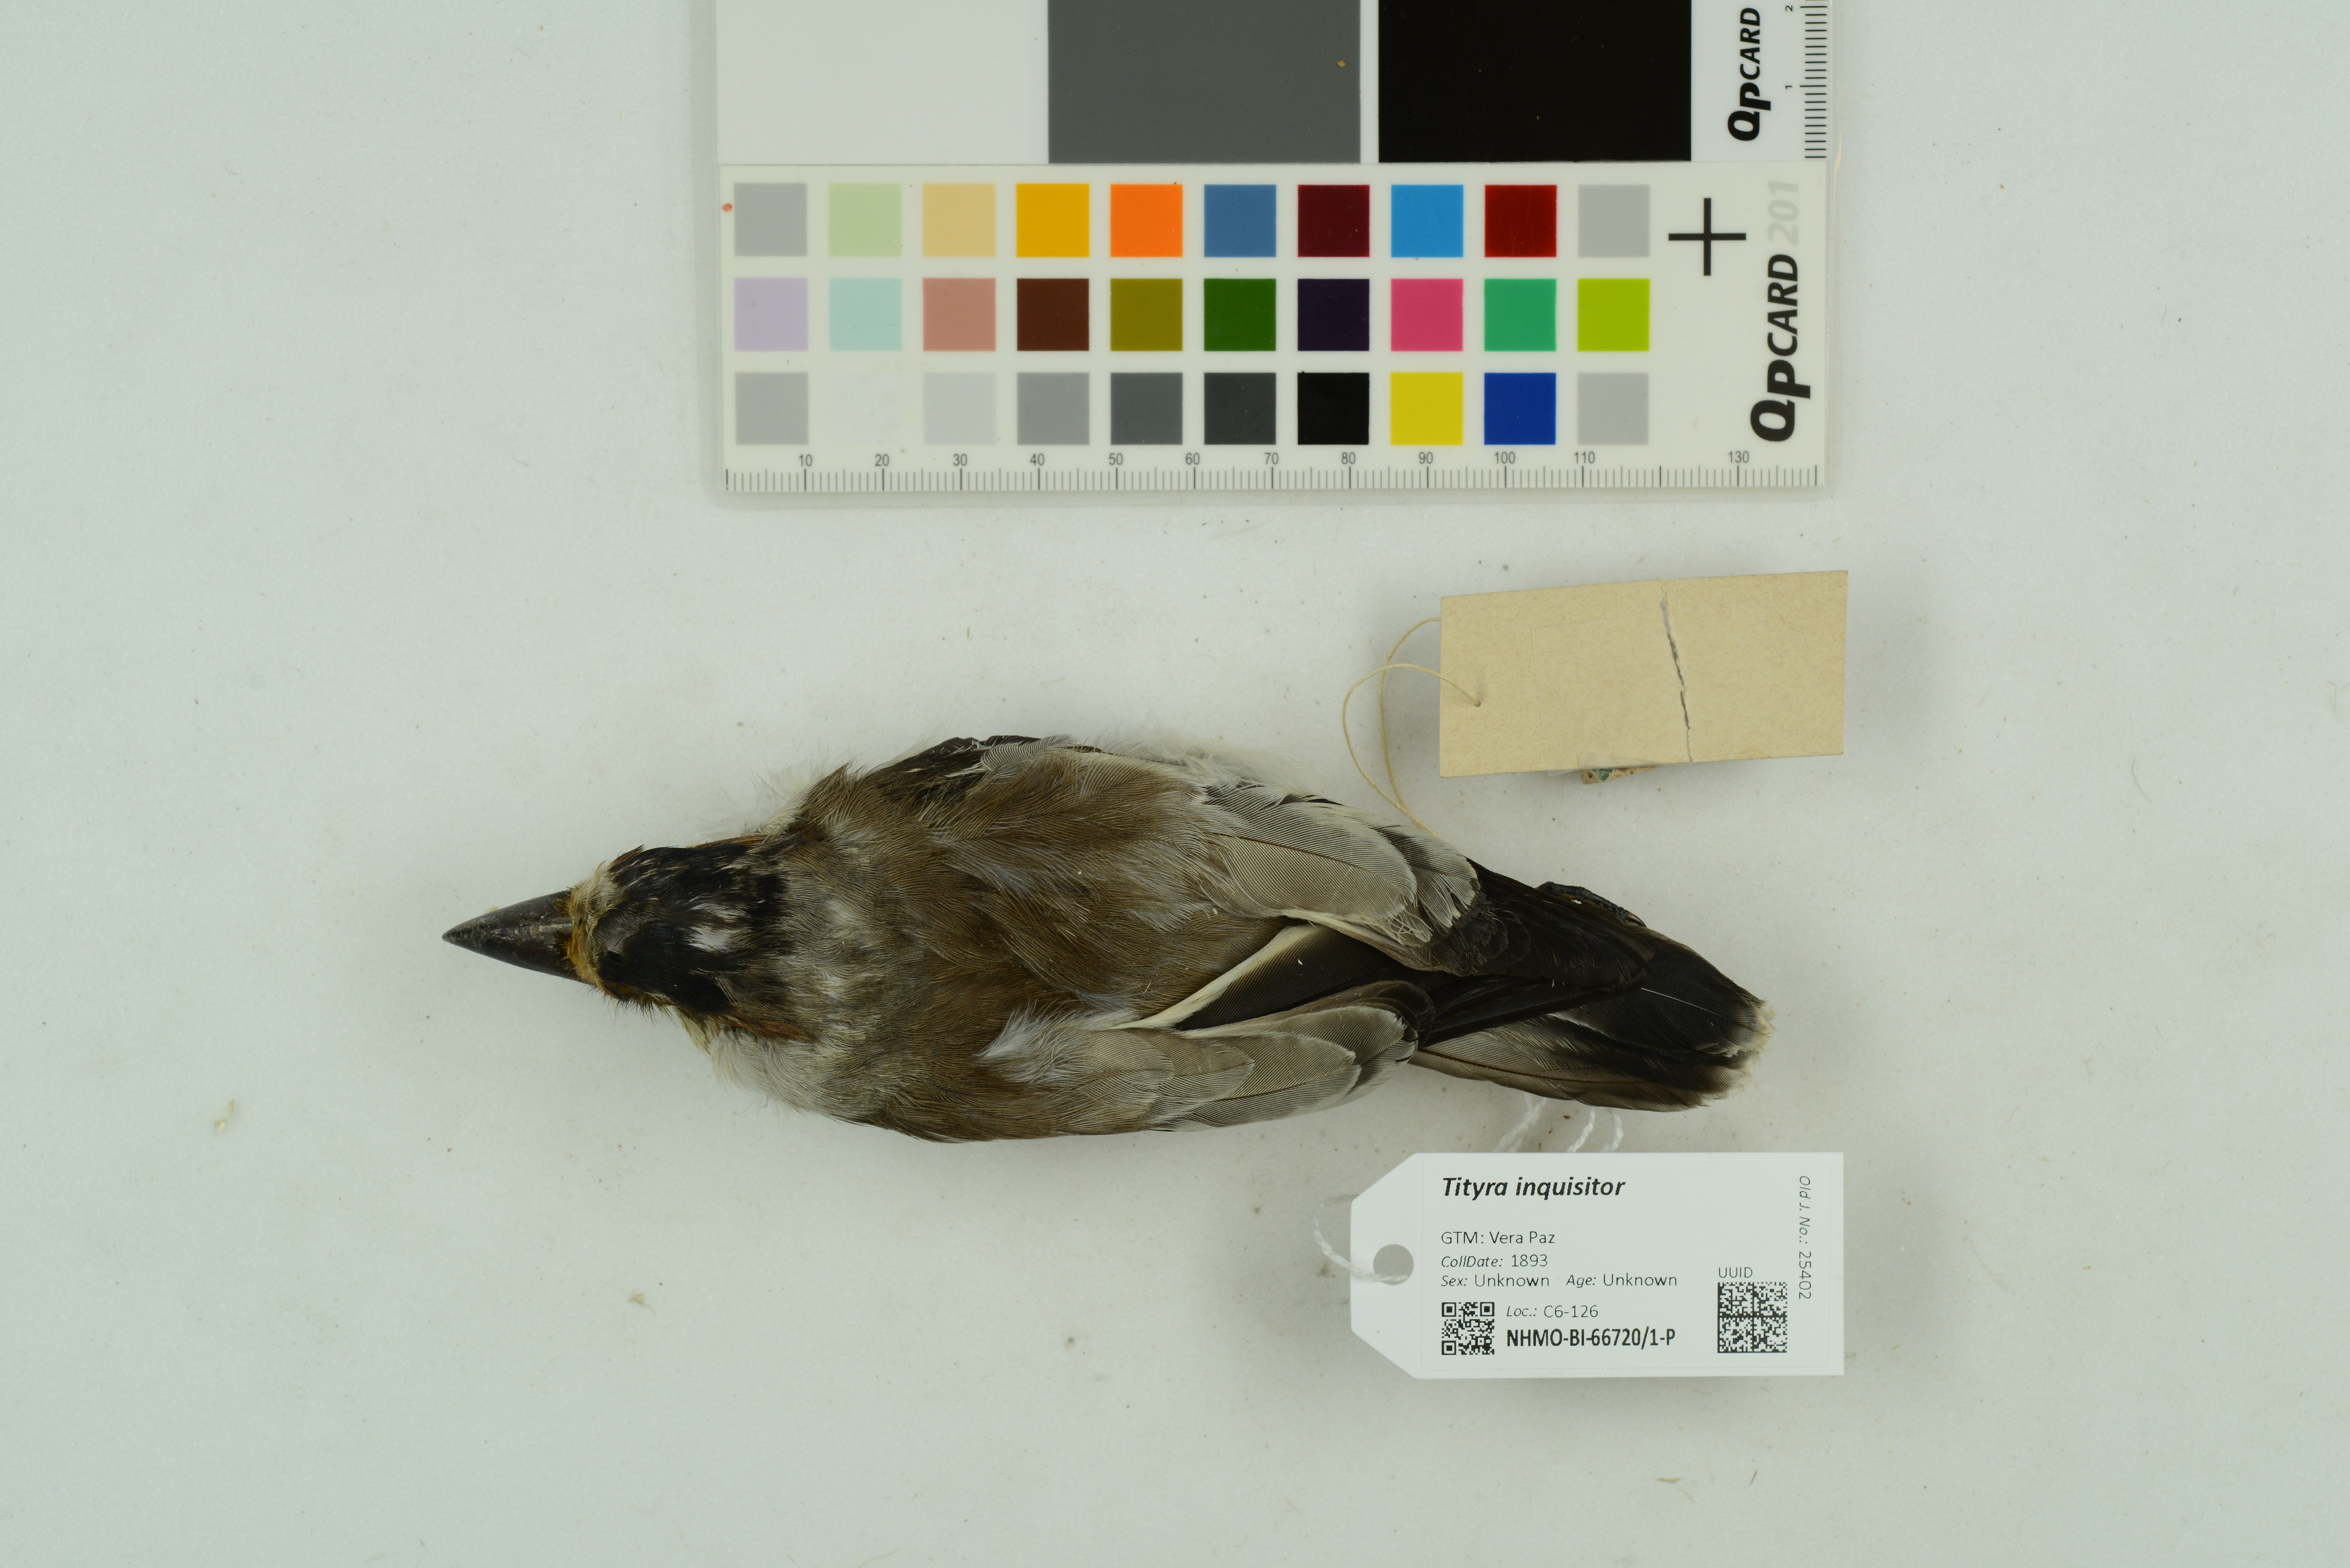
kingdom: Animalia
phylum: Chordata
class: Aves
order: Passeriformes
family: Cotingidae
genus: Tityra
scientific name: Tityra inquisitor
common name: Black-crowned tityra
